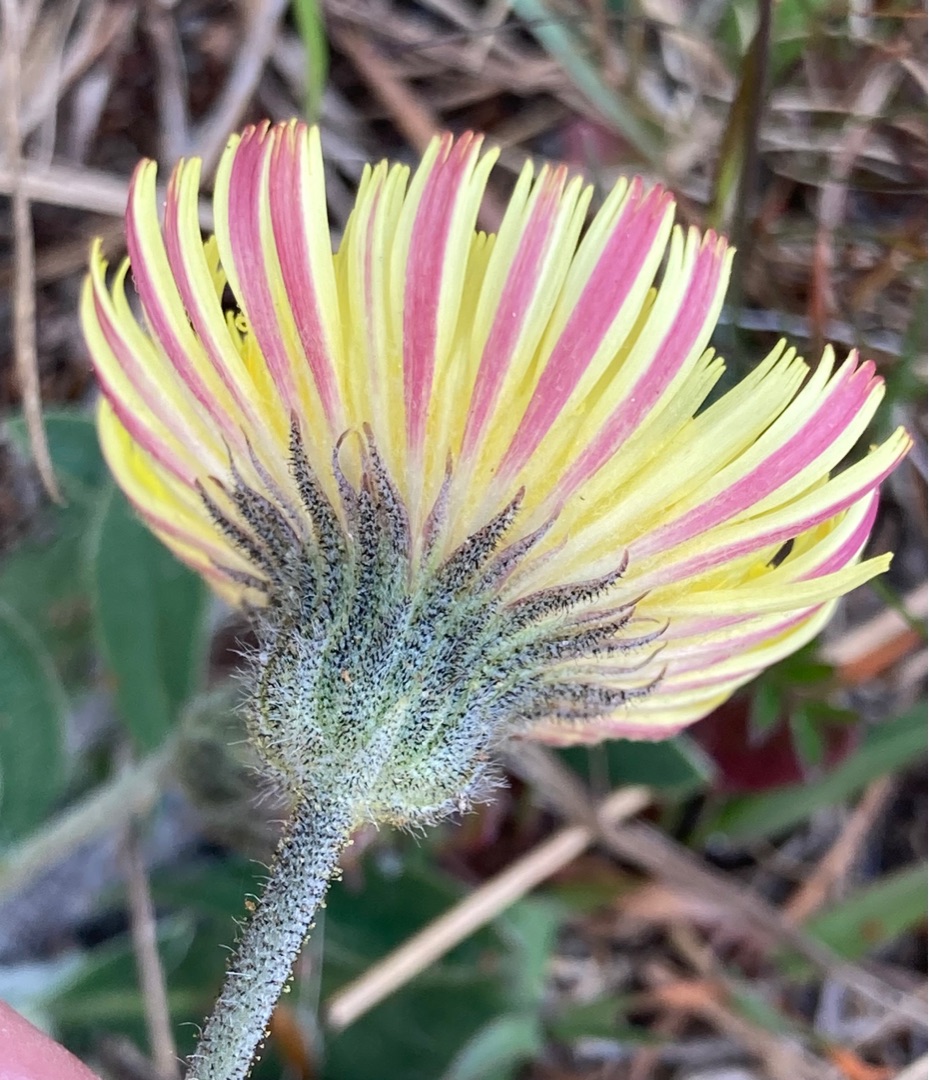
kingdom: Plantae
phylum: Tracheophyta
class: Magnoliopsida
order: Asterales
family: Asteraceae
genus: Pilosella
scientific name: Pilosella officinarum
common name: Håret høgeurt
